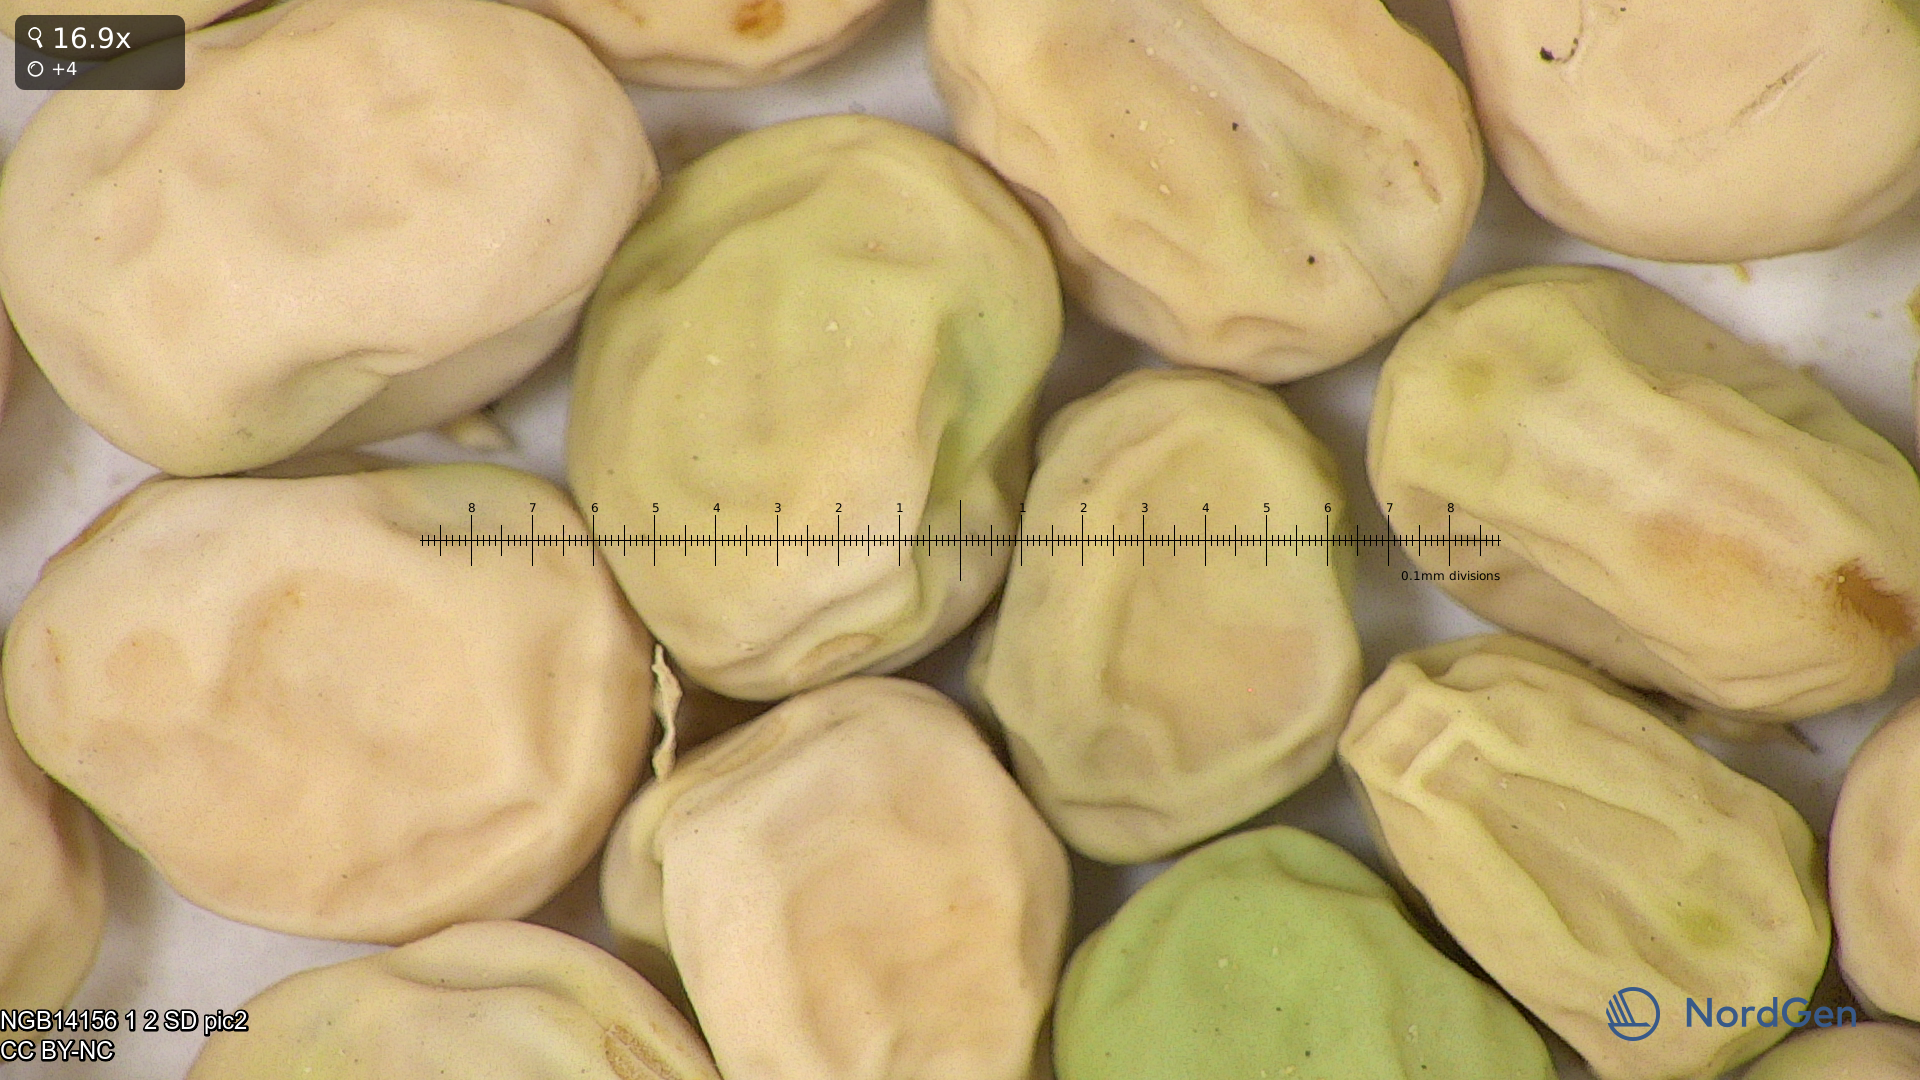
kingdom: Plantae
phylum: Tracheophyta
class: Magnoliopsida
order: Fabales
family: Fabaceae
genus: Lathyrus
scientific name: Lathyrus oleraceus
